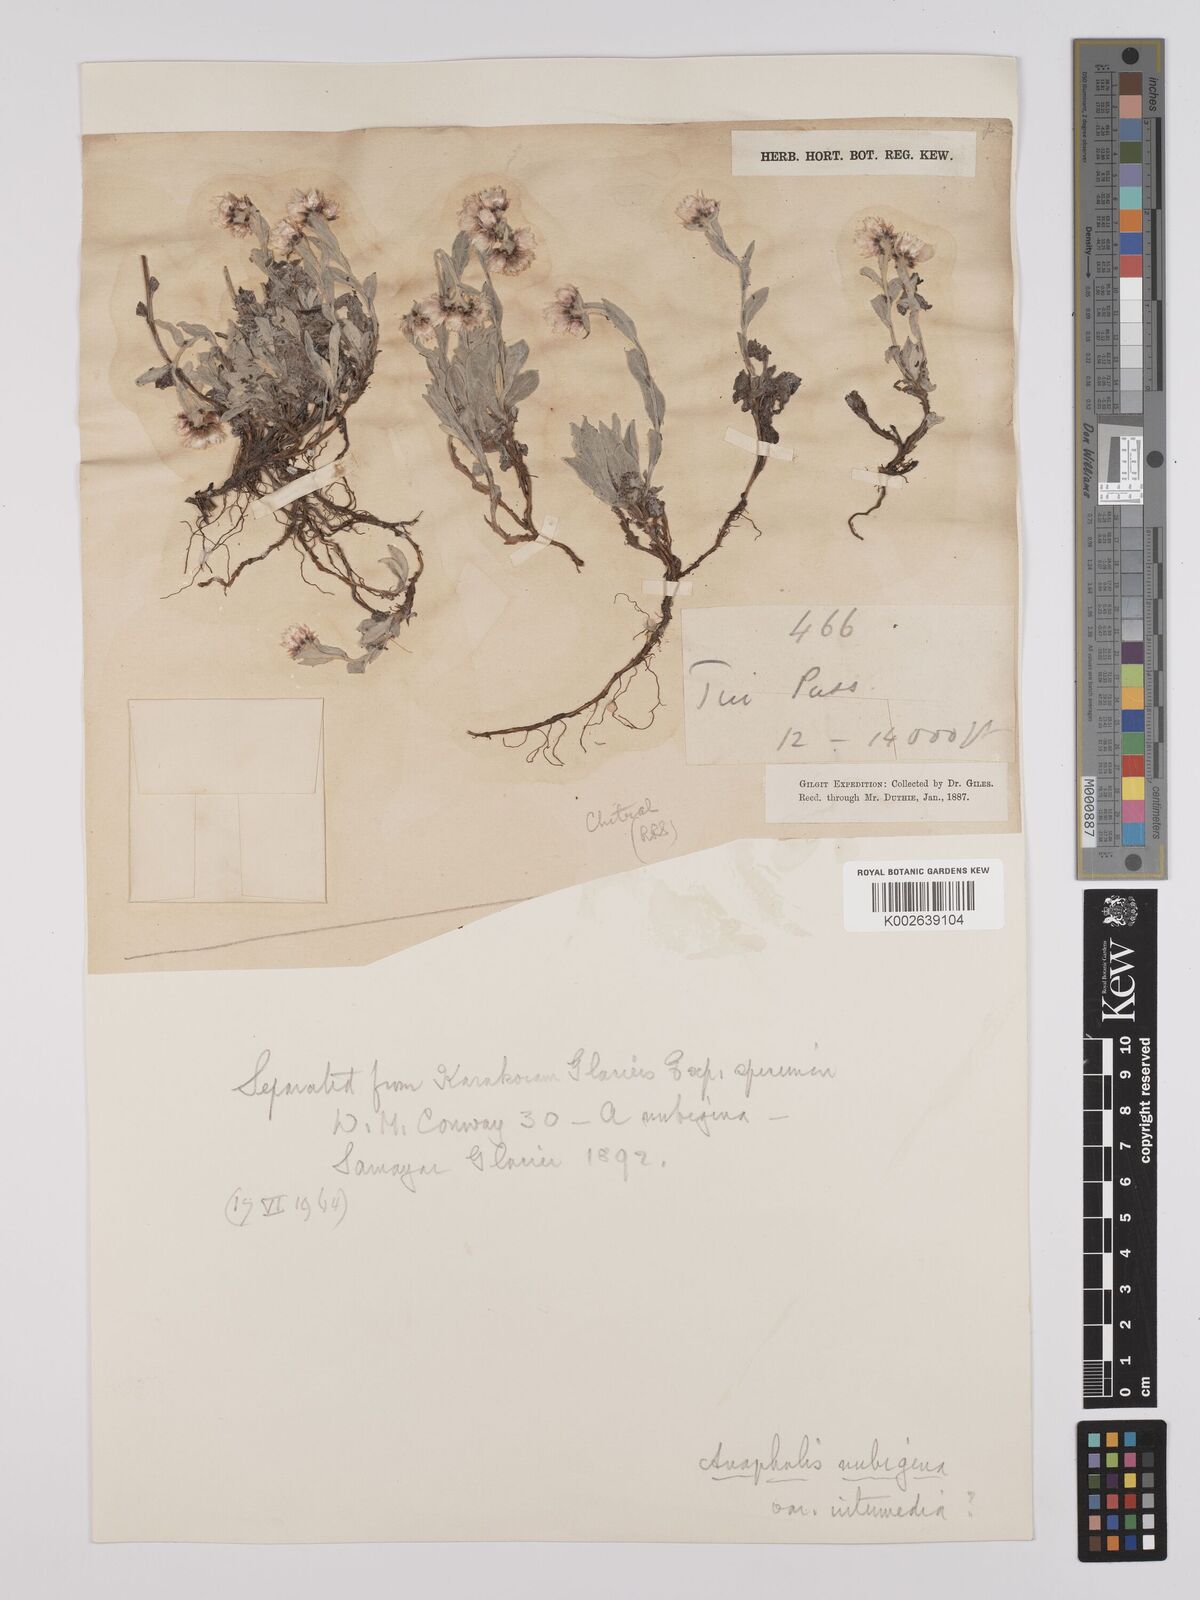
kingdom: Plantae
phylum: Tracheophyta
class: Magnoliopsida
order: Asterales
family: Asteraceae
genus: Anaphalis
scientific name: Anaphalis nepalensis
